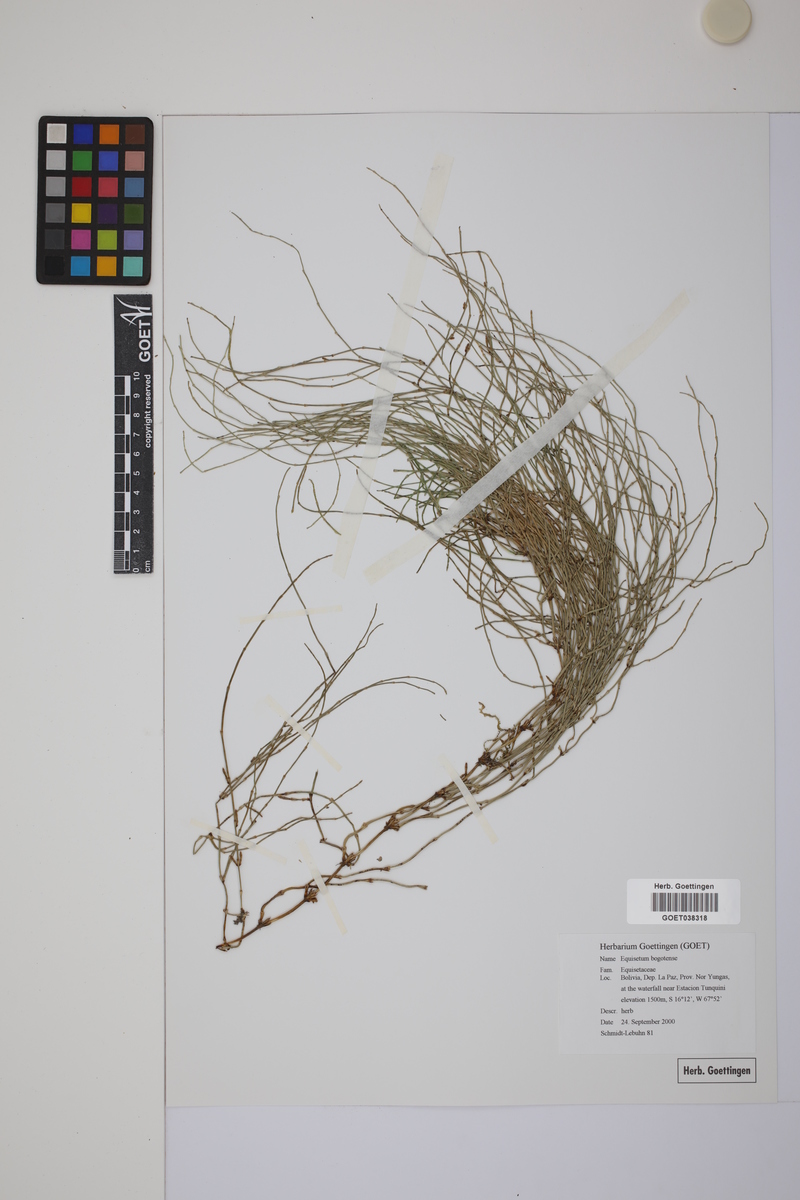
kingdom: Plantae
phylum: Tracheophyta
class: Polypodiopsida
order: Equisetales
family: Equisetaceae
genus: Equisetum
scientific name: Equisetum bogotense
